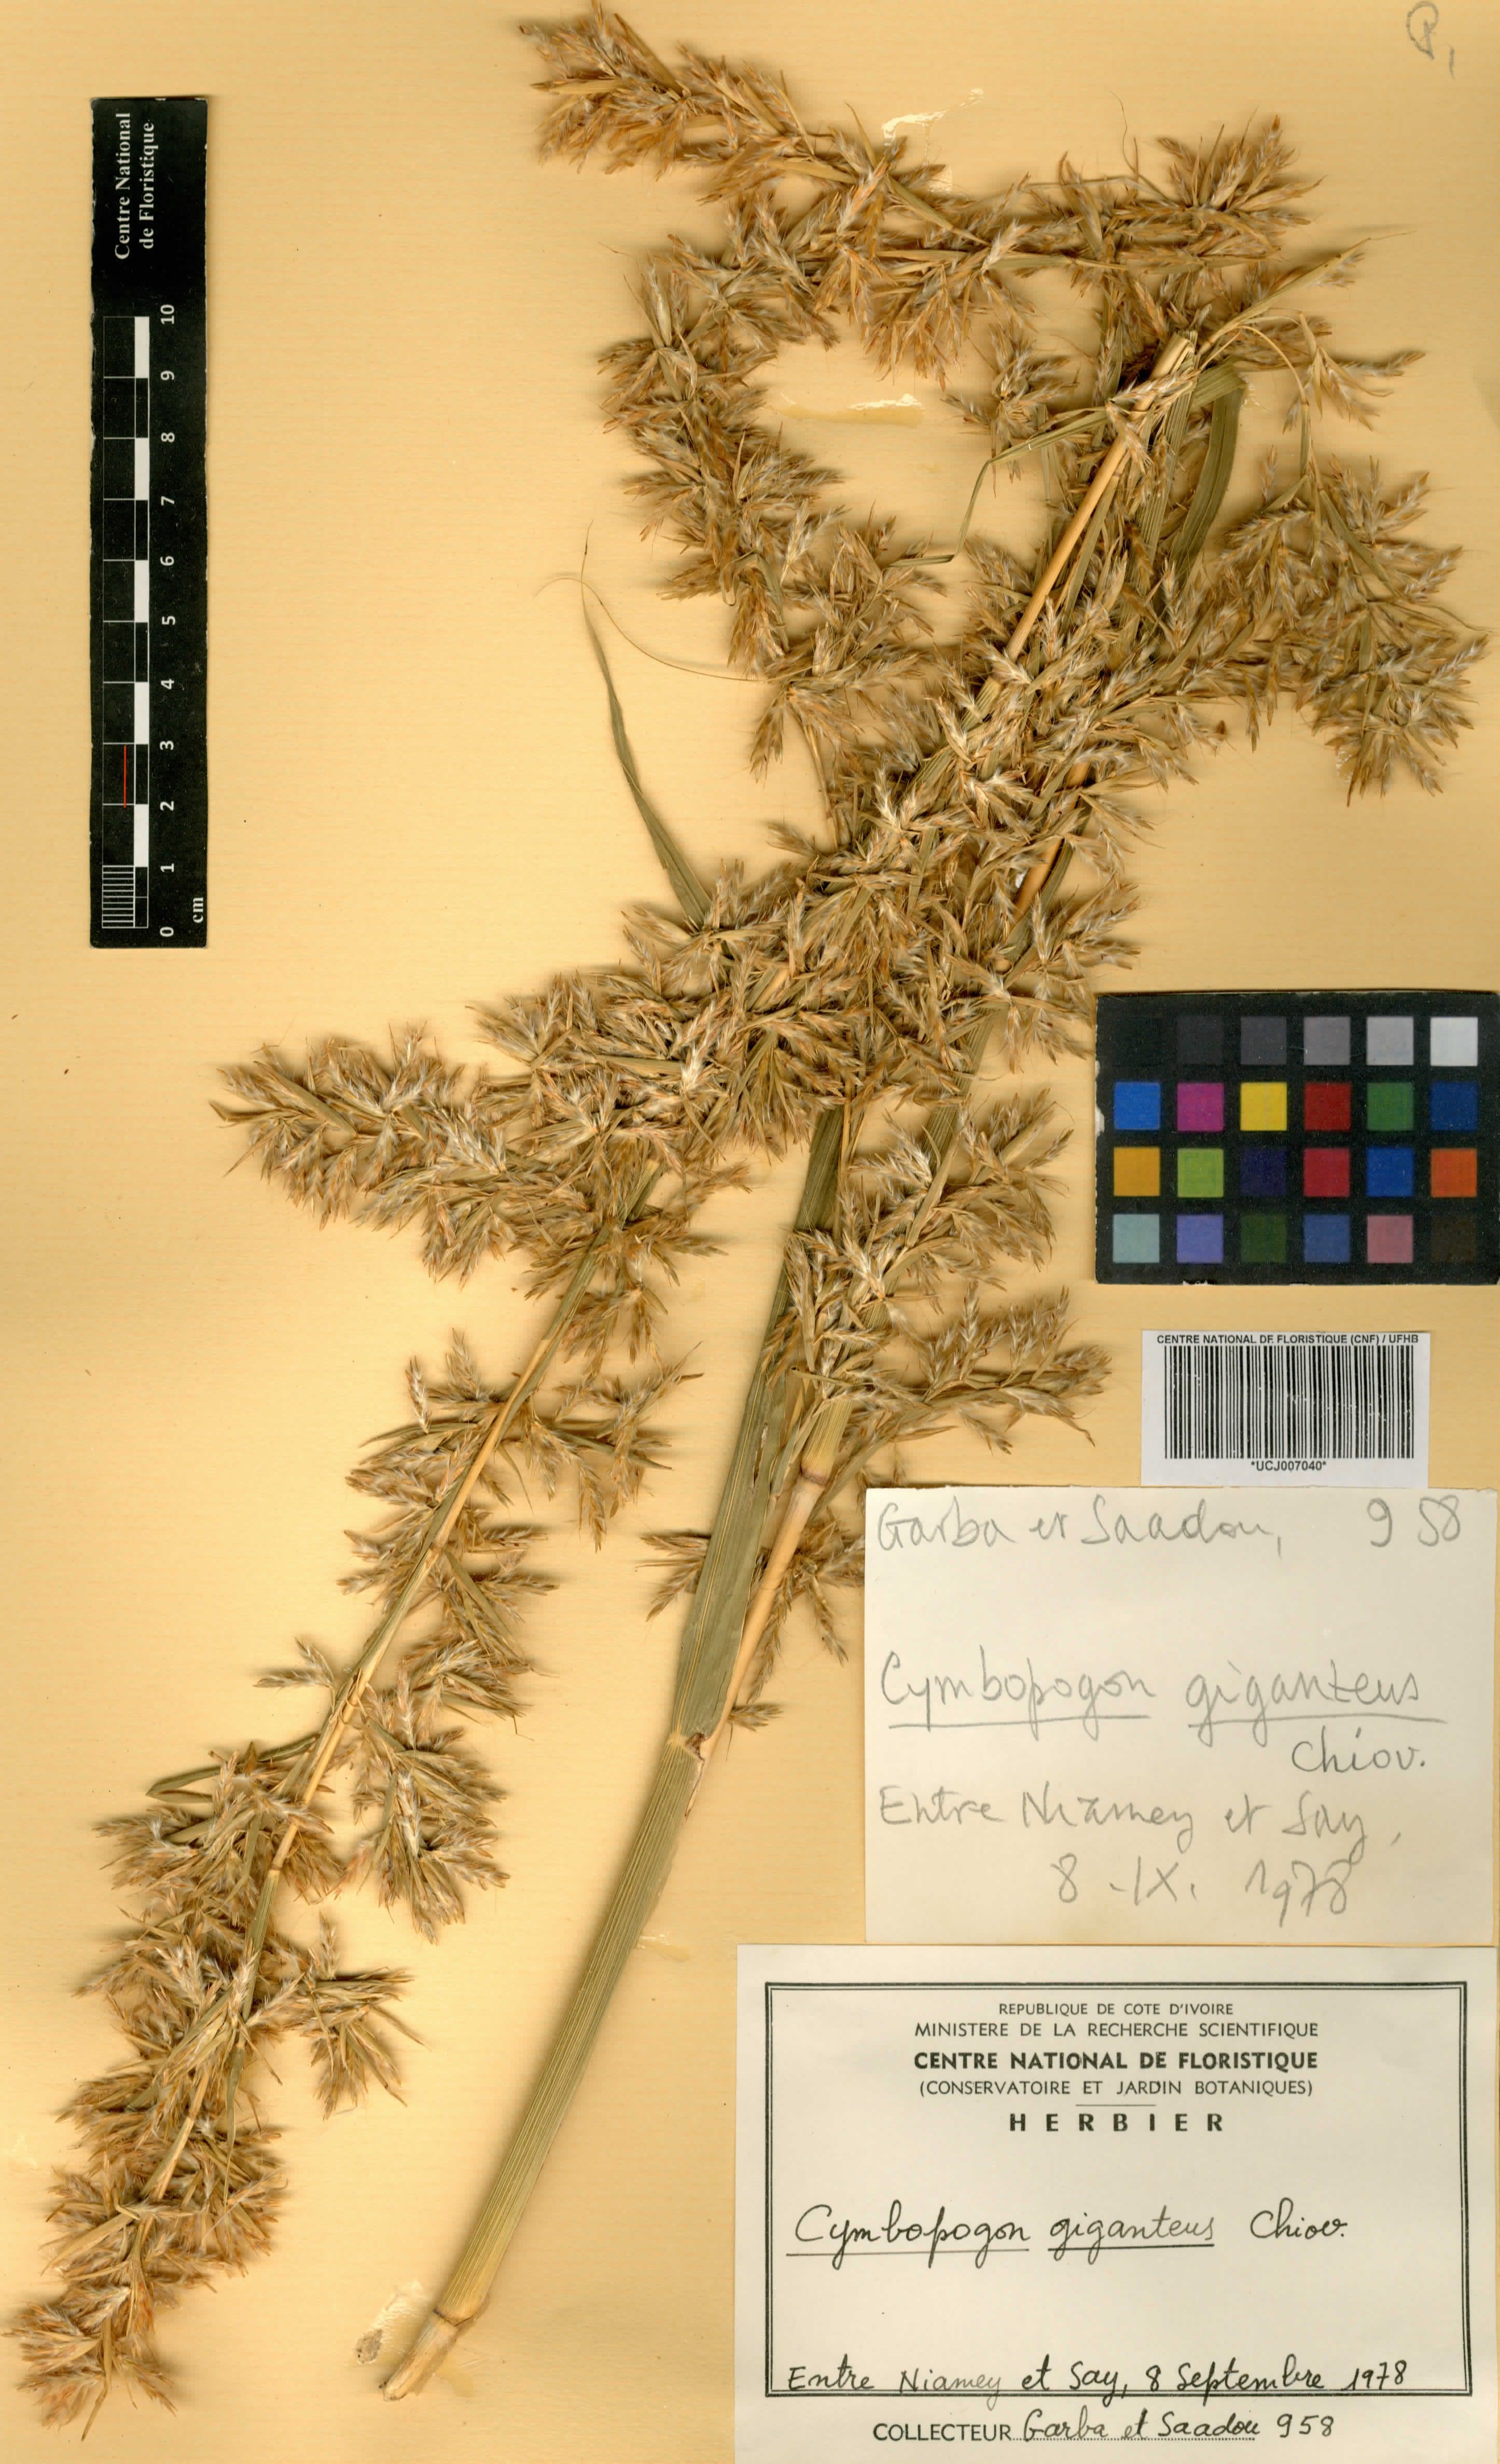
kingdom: Plantae
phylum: Tracheophyta
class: Liliopsida
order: Poales
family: Poaceae
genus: Cymbopogon
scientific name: Cymbopogon giganteus
